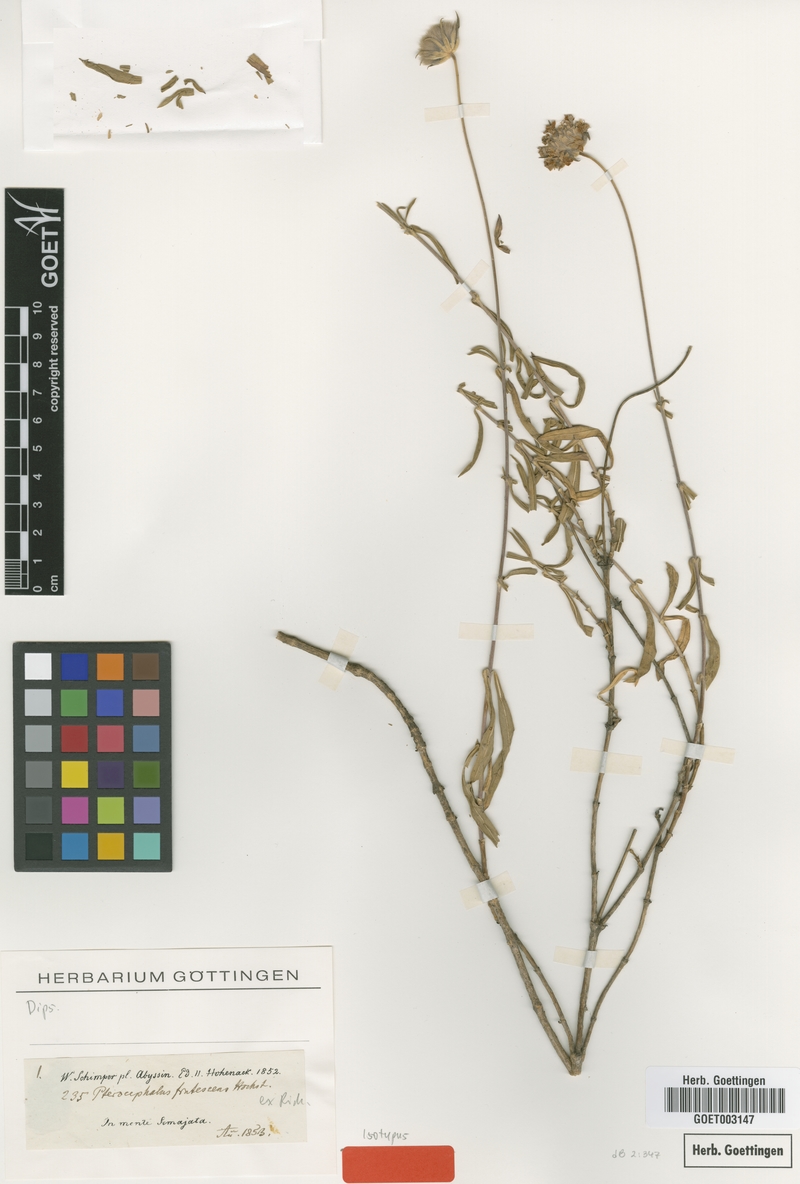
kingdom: Plantae
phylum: Tracheophyta
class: Magnoliopsida
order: Dipsacales
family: Caprifoliaceae
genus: Pterocephalus
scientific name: Pterocephalus frutescens
